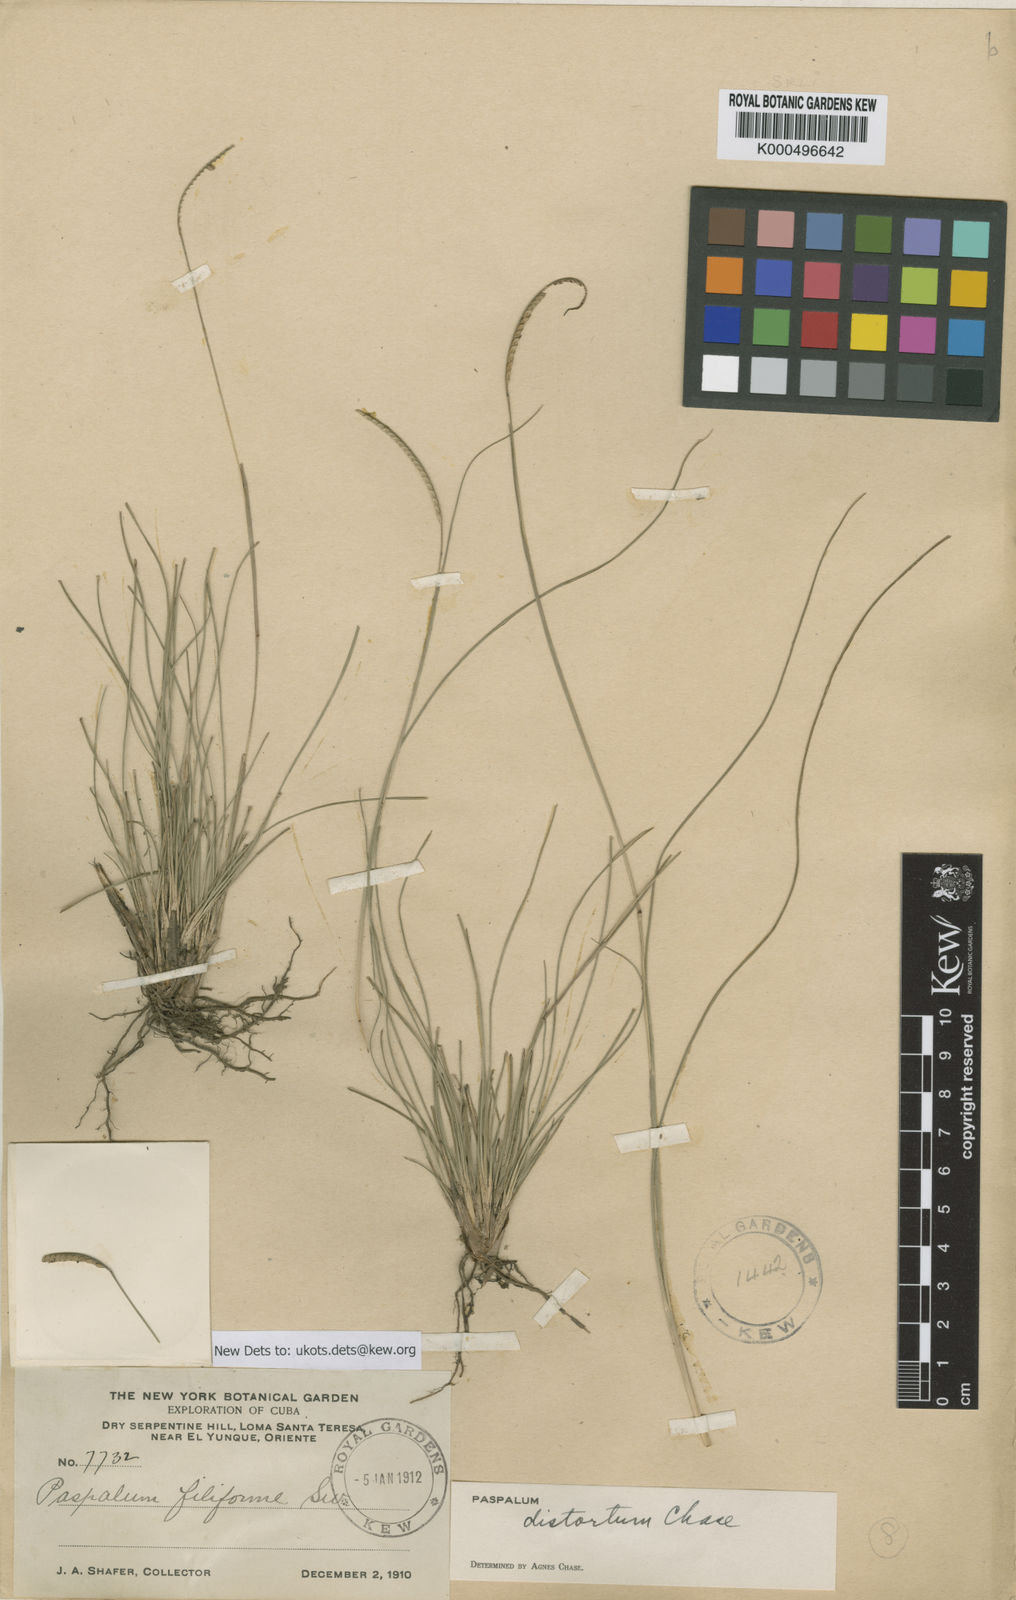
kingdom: Plantae
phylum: Tracheophyta
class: Liliopsida
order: Poales
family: Poaceae
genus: Paspalum
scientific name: Paspalum distortum
